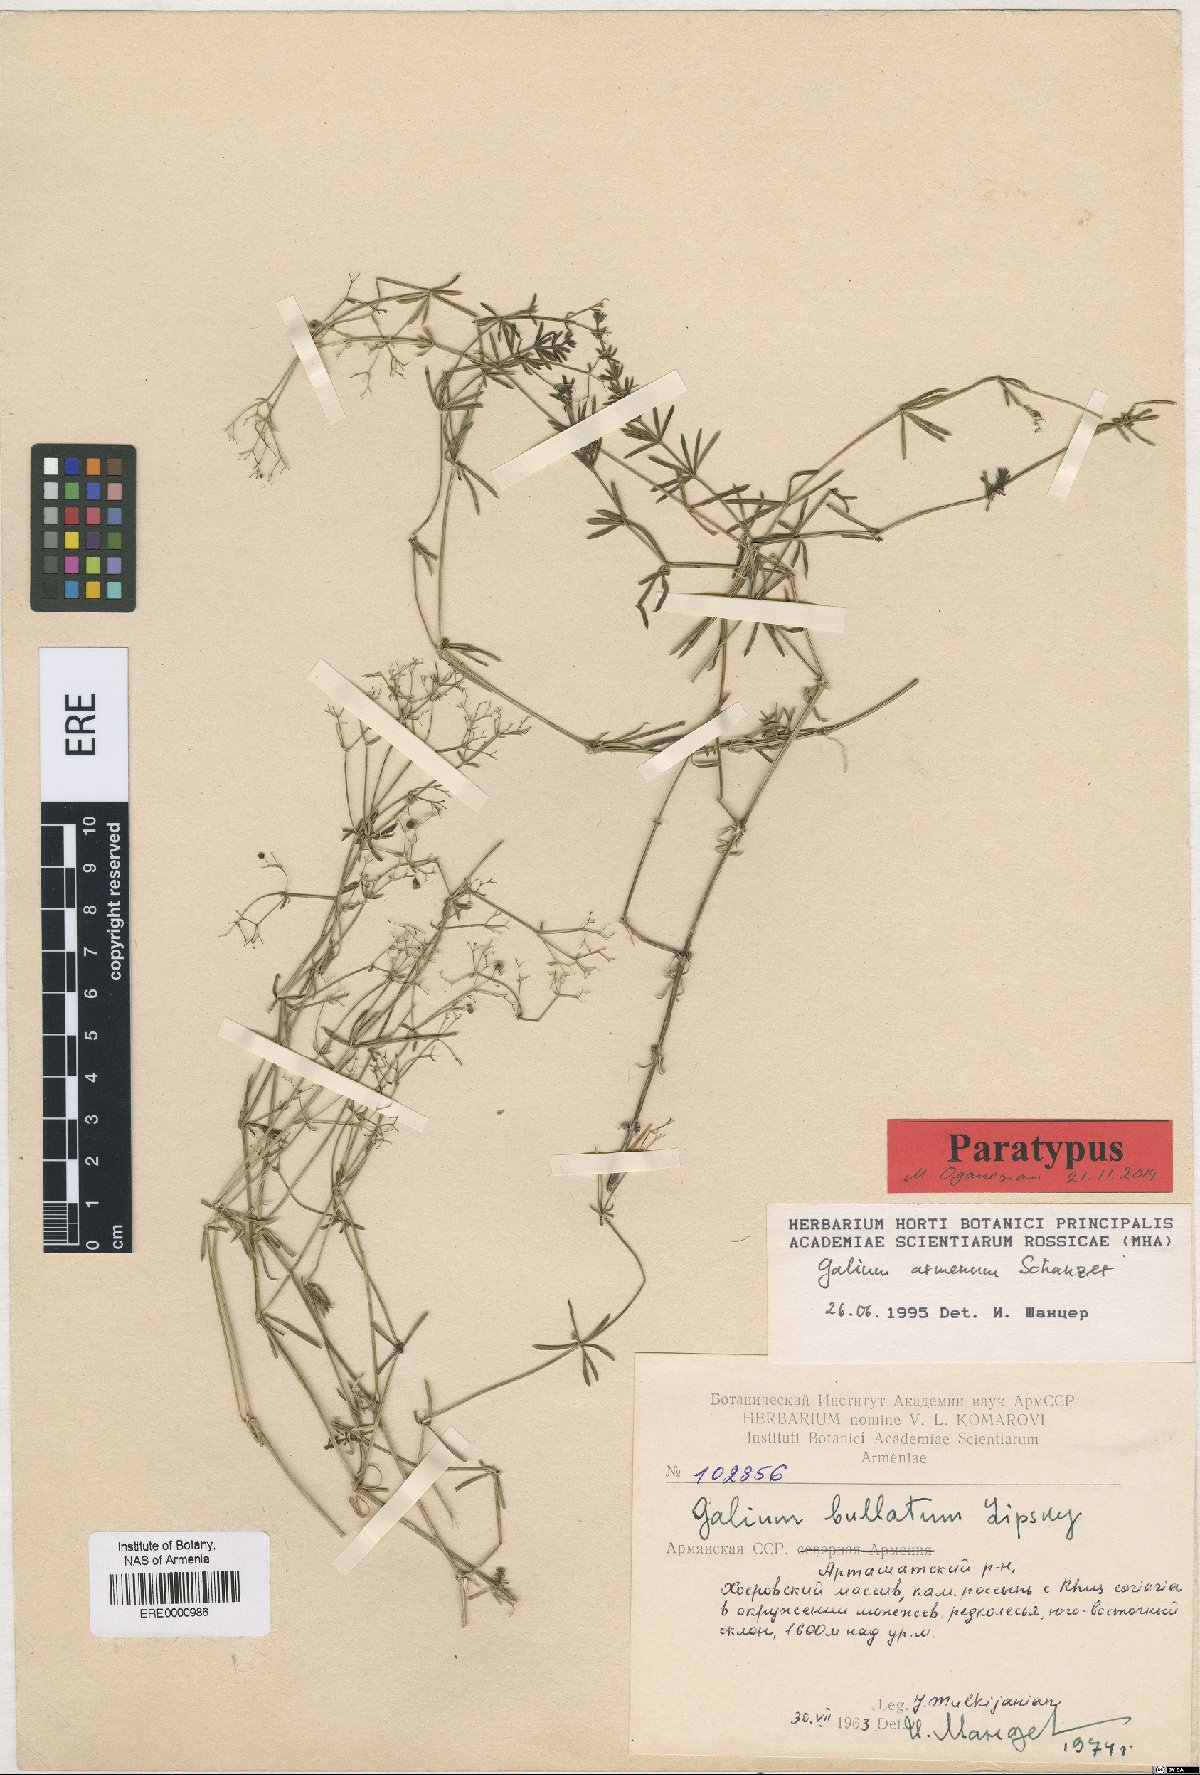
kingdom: Plantae
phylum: Tracheophyta
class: Magnoliopsida
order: Gentianales
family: Rubiaceae
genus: Galium
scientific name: Galium armenum
